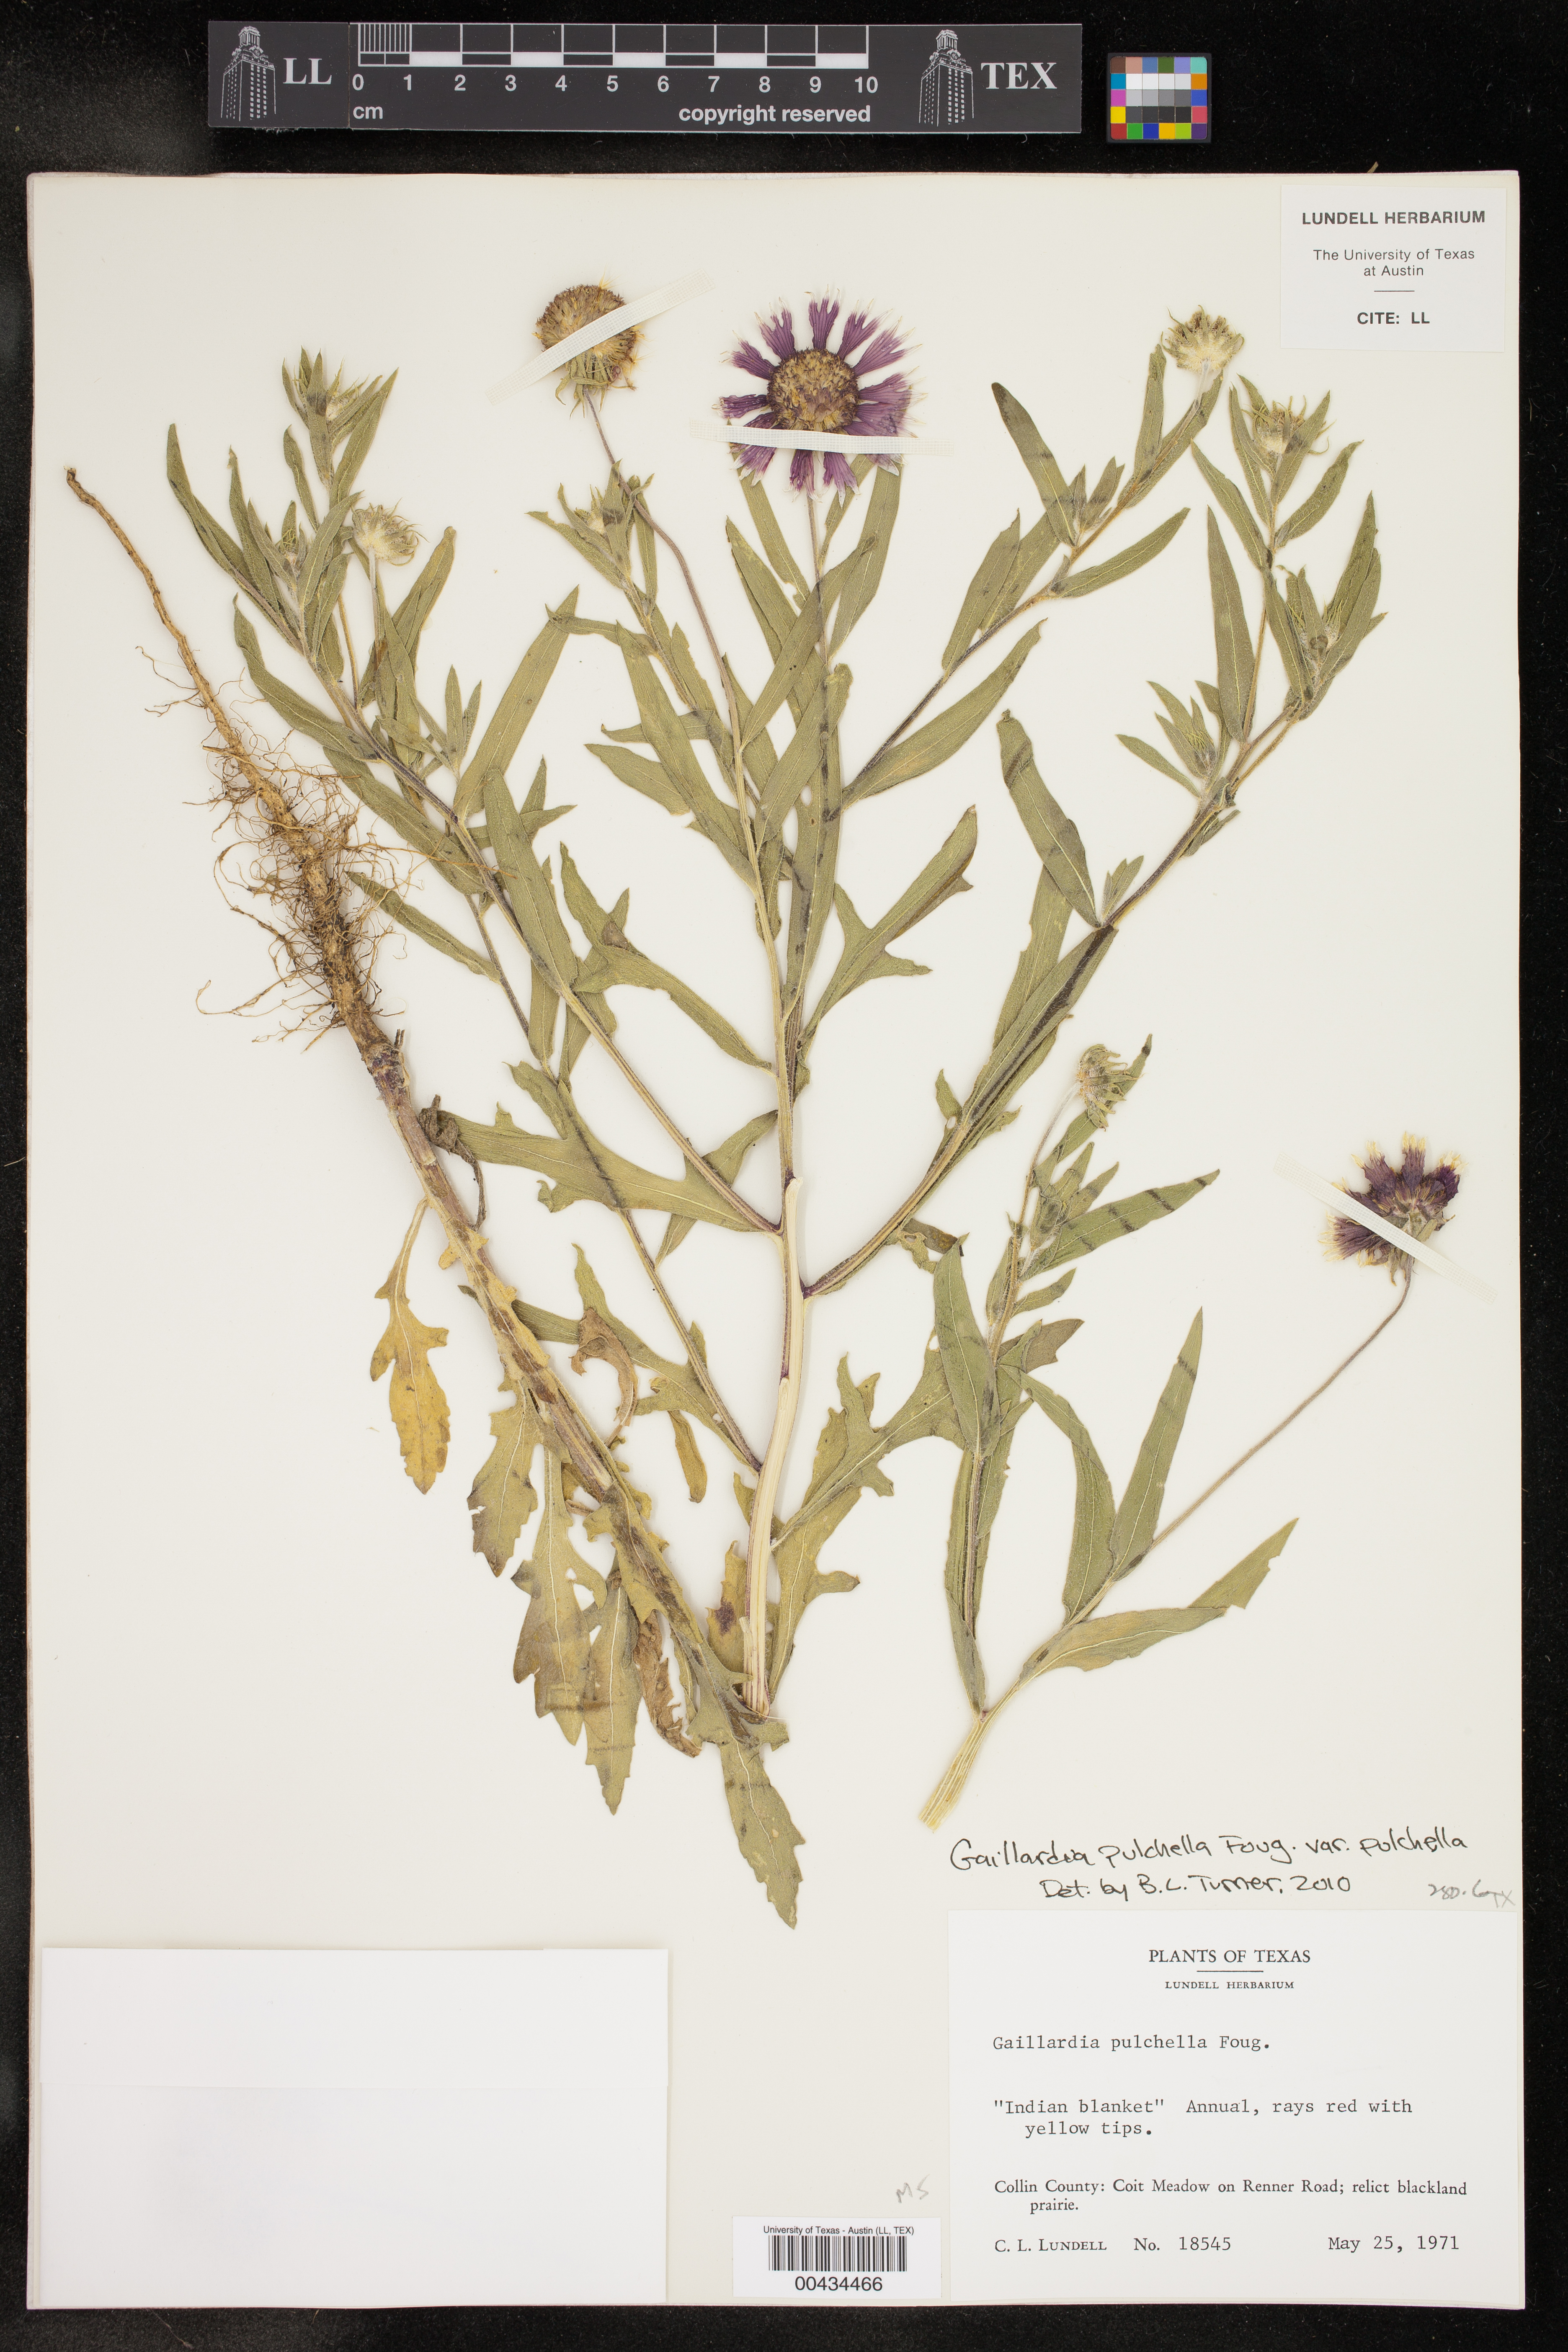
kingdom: Plantae
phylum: Tracheophyta
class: Magnoliopsida
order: Asterales
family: Asteraceae
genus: Gaillardia
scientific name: Gaillardia pulchella
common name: Firewheel
